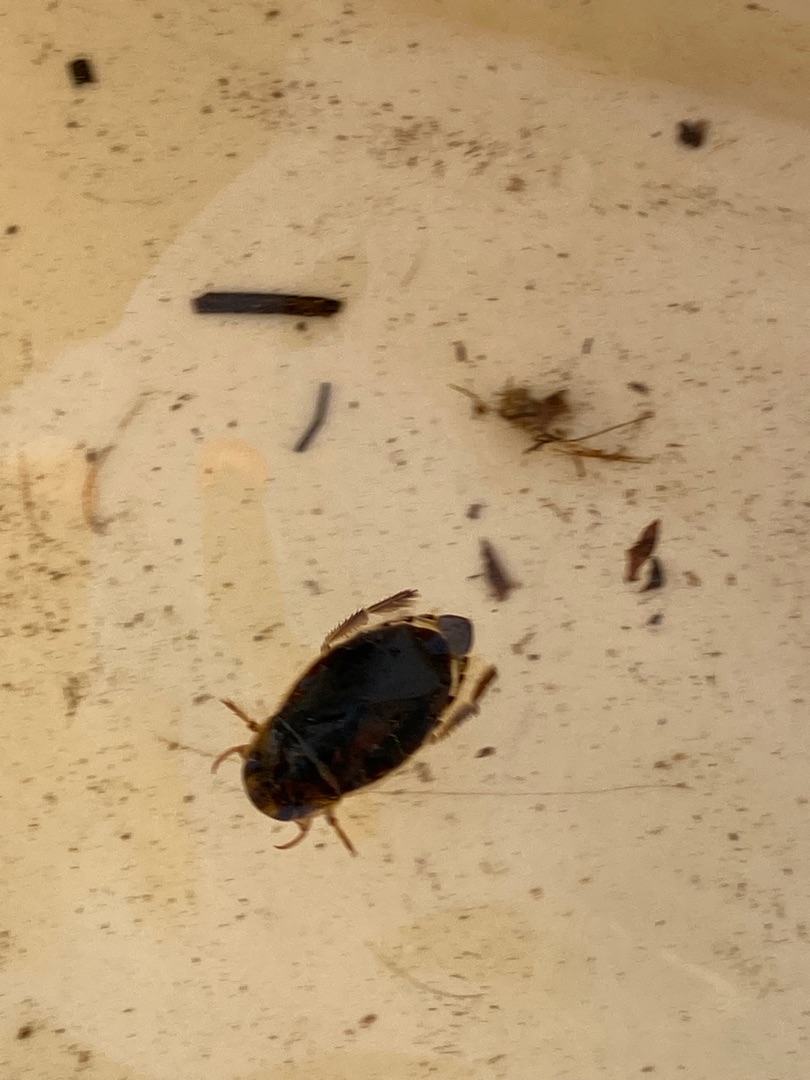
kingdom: Animalia
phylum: Arthropoda
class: Insecta
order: Hemiptera
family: Naucoridae
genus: Ilyocoris
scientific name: Ilyocoris cimicoides
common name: Vandrøver
